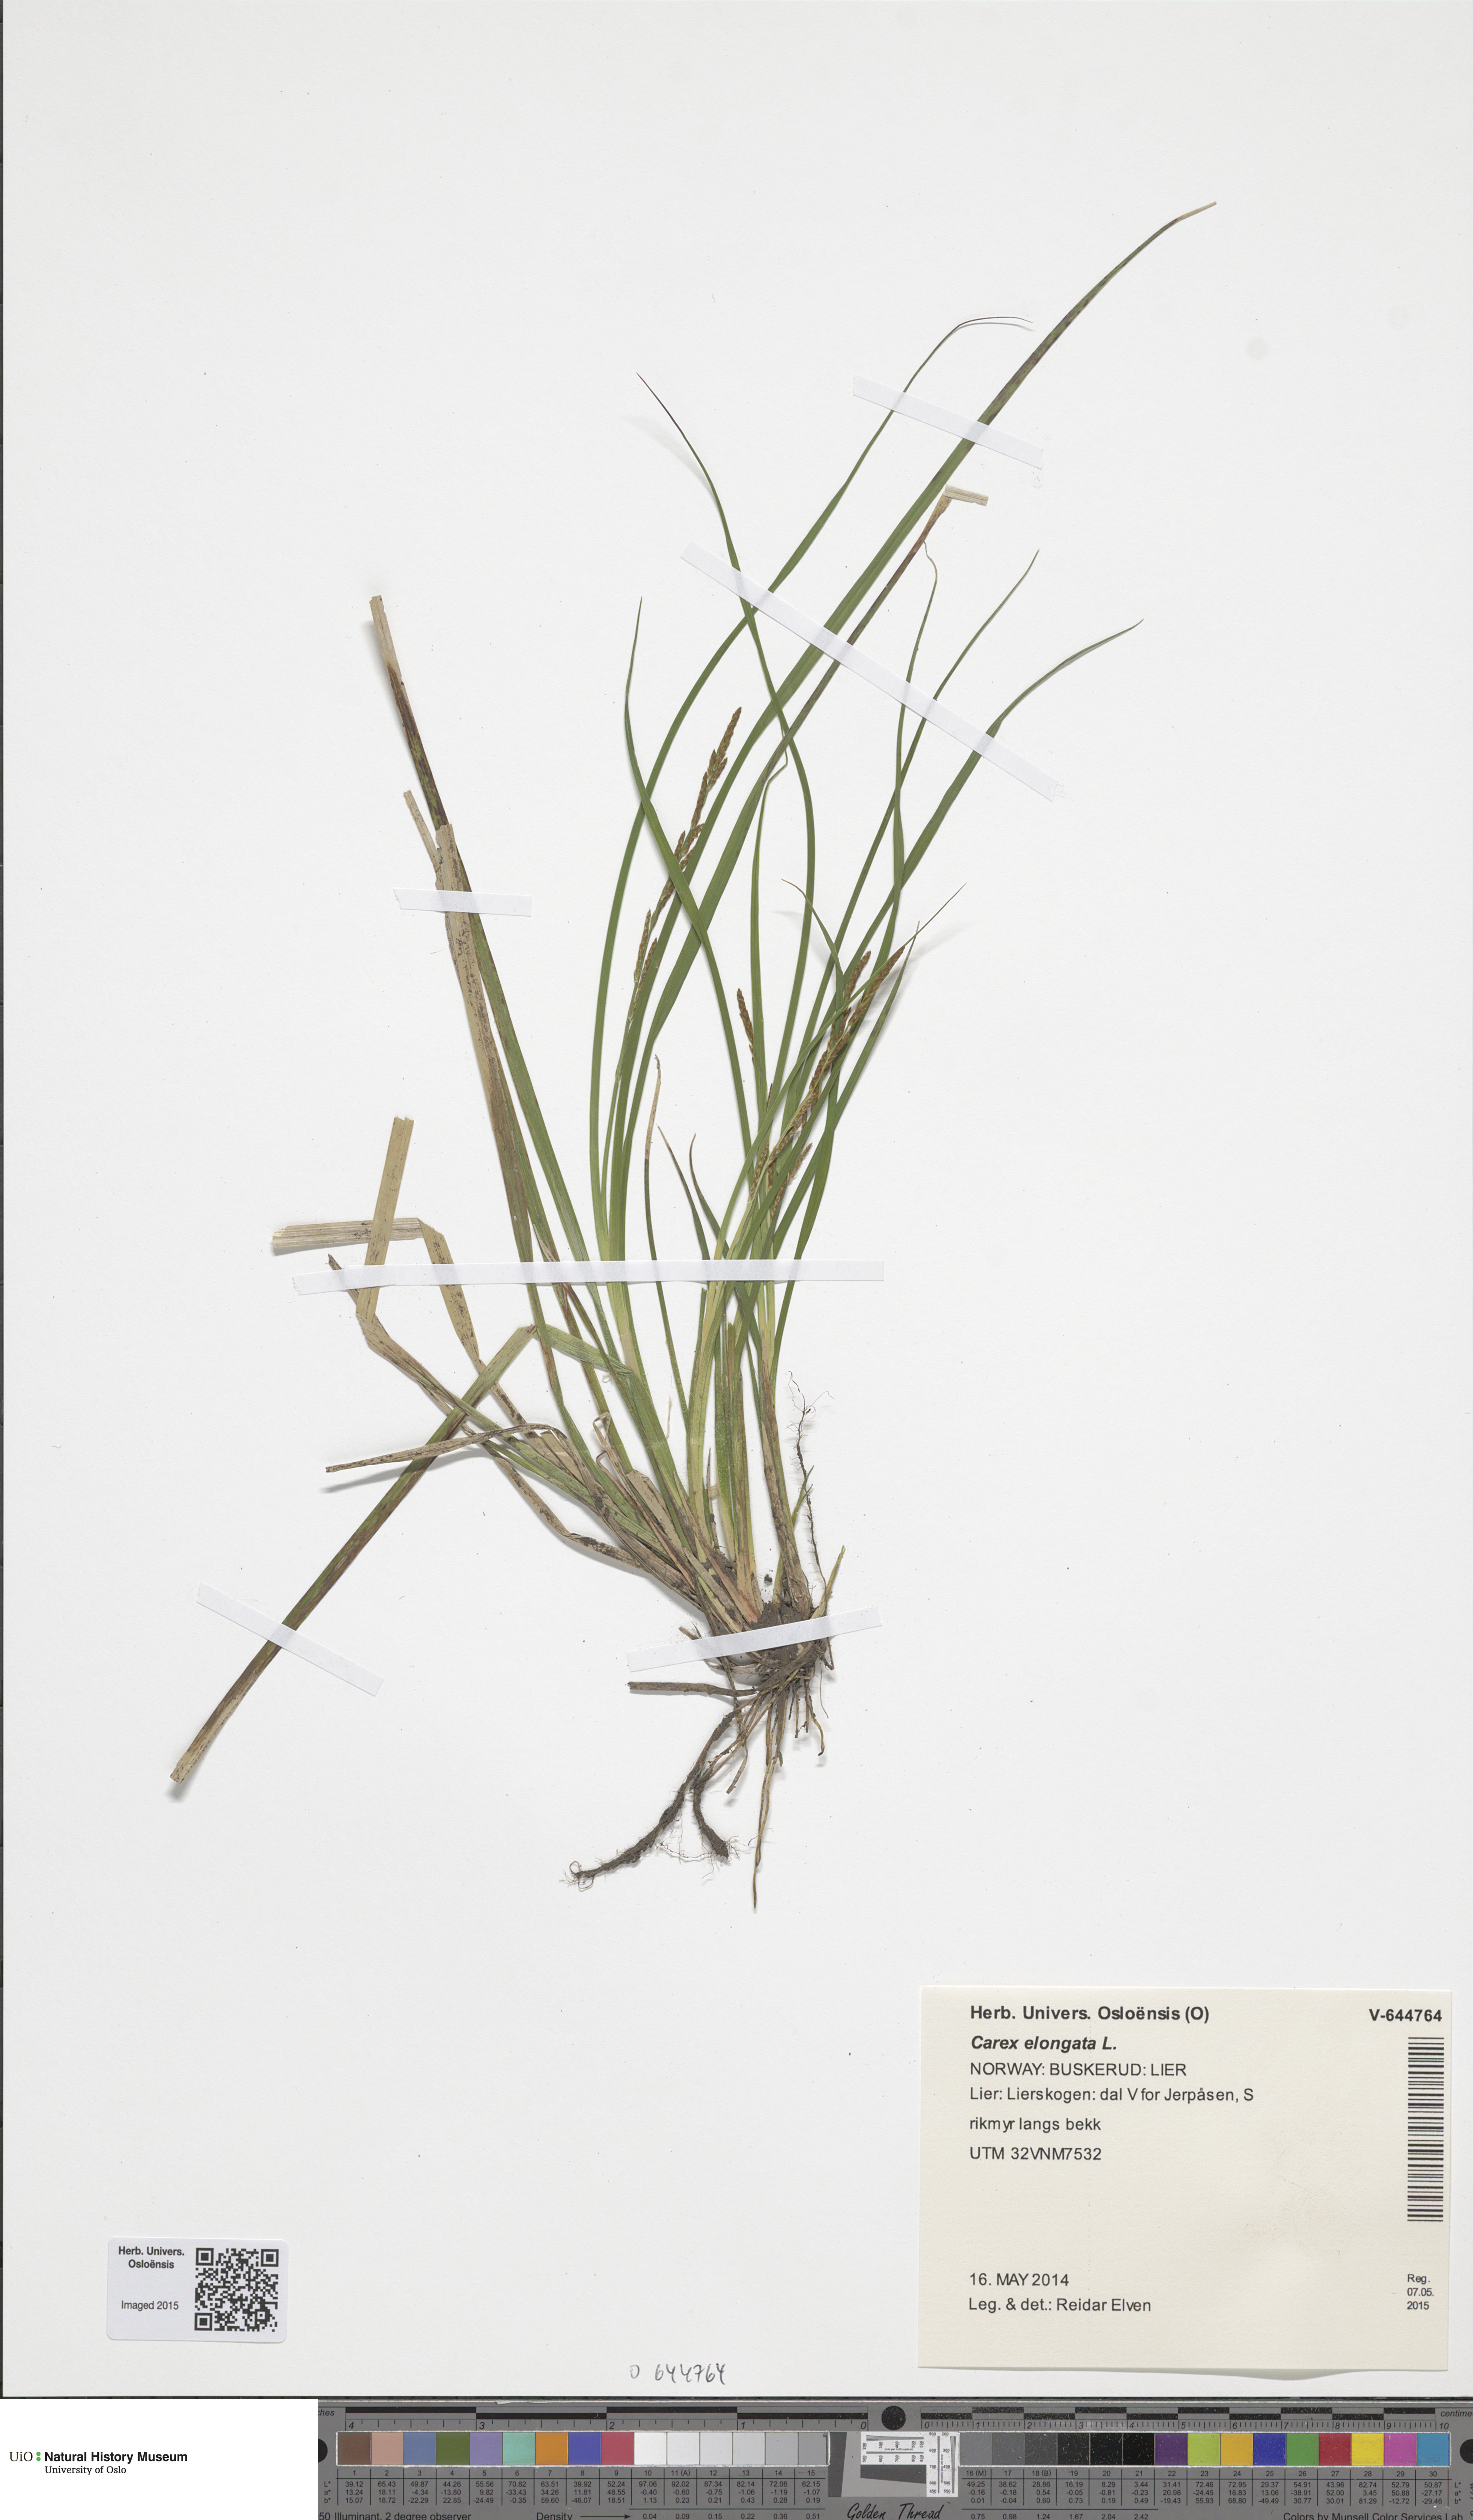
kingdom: Plantae
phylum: Tracheophyta
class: Liliopsida
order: Poales
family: Cyperaceae
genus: Carex
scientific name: Carex elongata
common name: Elongated sedge
